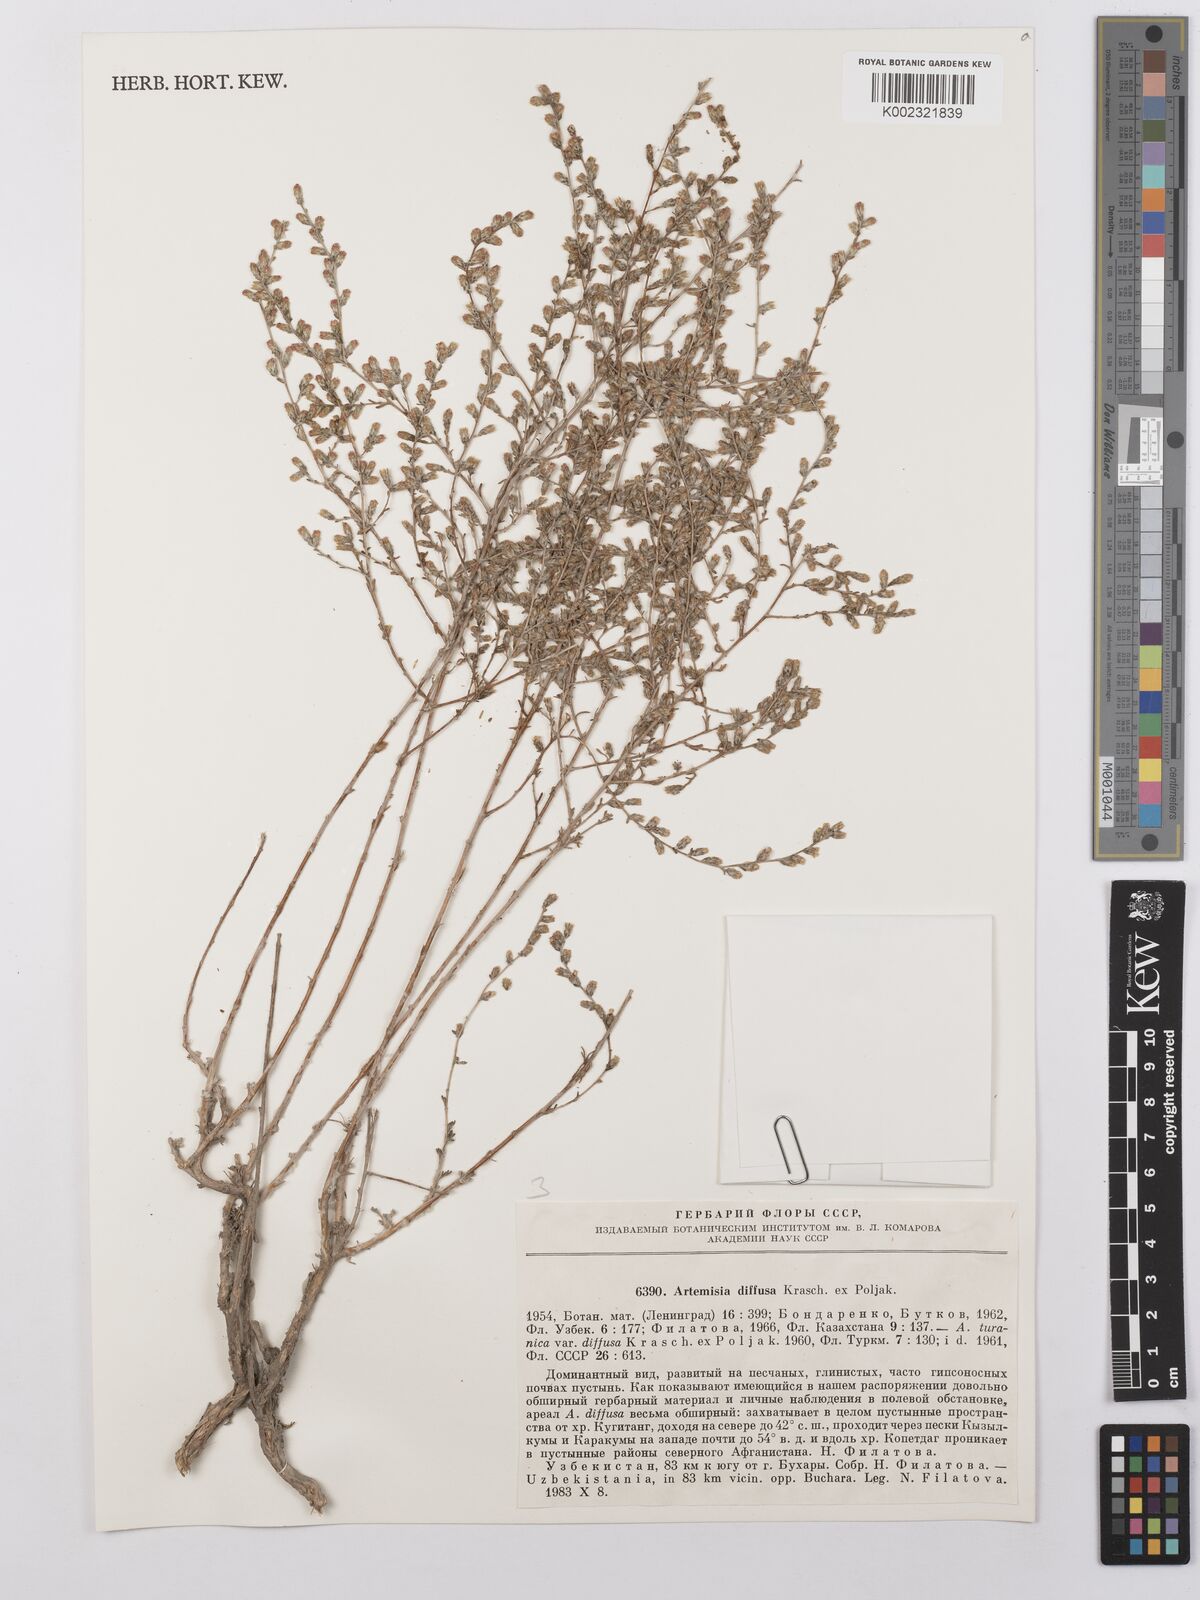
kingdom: Plantae
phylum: Tracheophyta
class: Magnoliopsida
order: Asterales
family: Asteraceae
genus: Artemisia
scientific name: Artemisia diffusa
